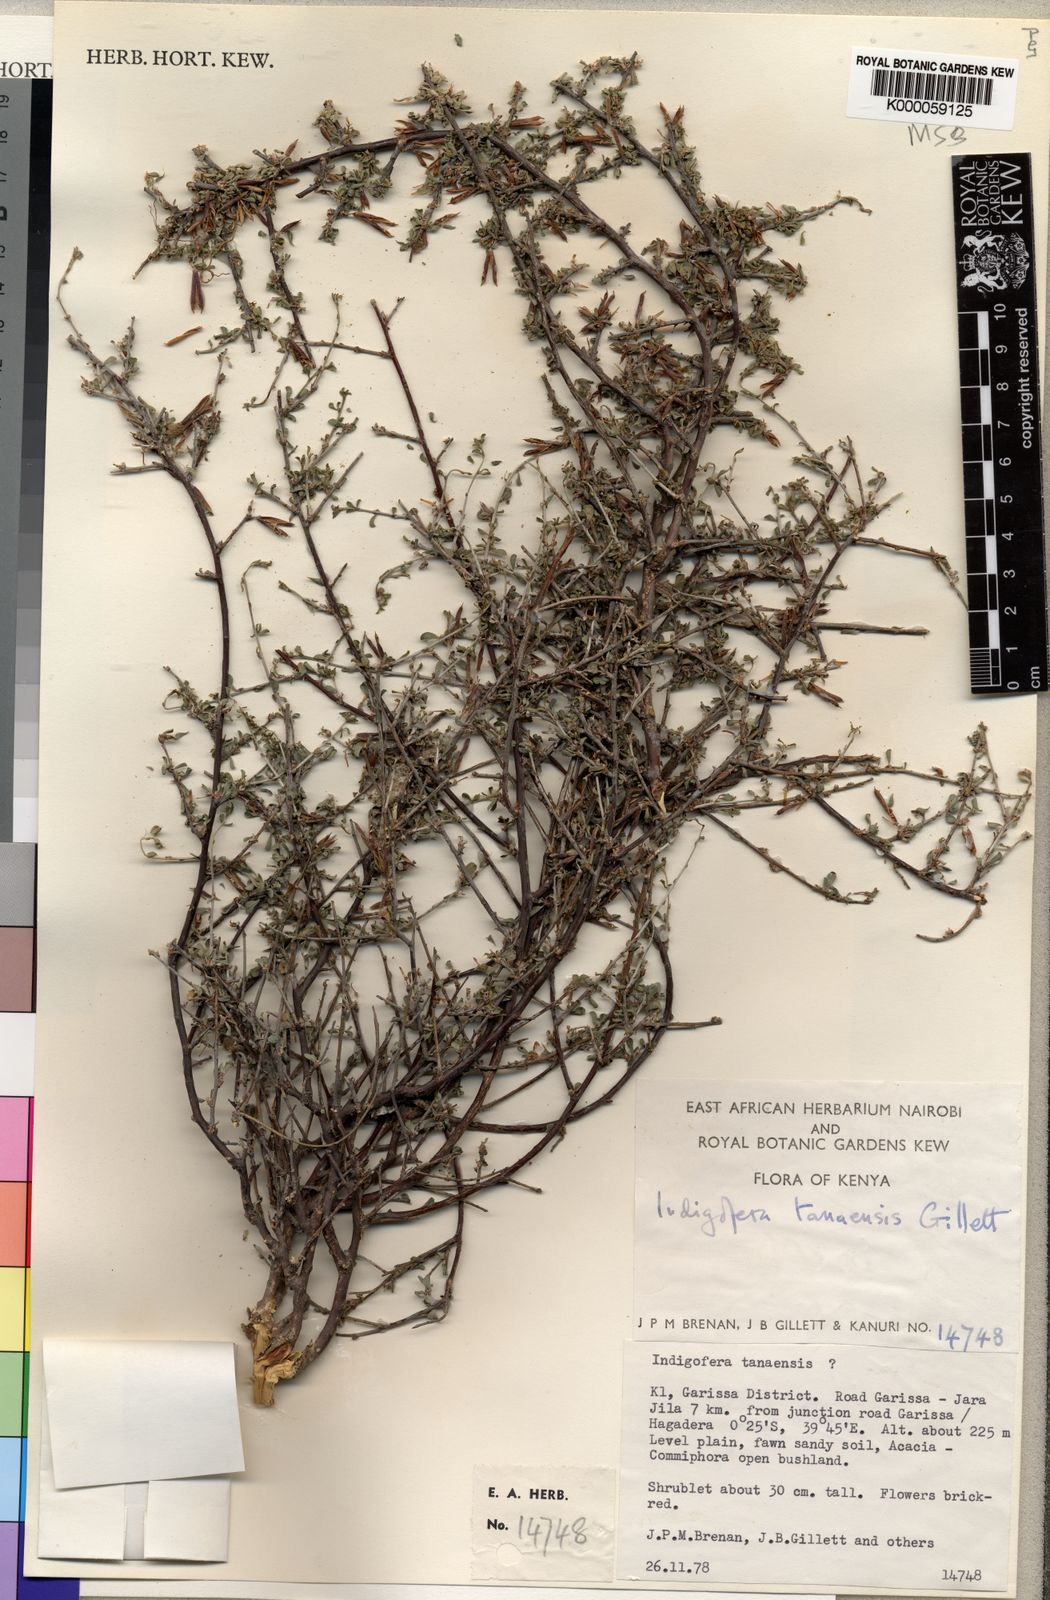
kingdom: Plantae
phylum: Tracheophyta
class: Magnoliopsida
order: Fabales
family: Fabaceae
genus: Indigofera
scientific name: Indigofera tanaensis
